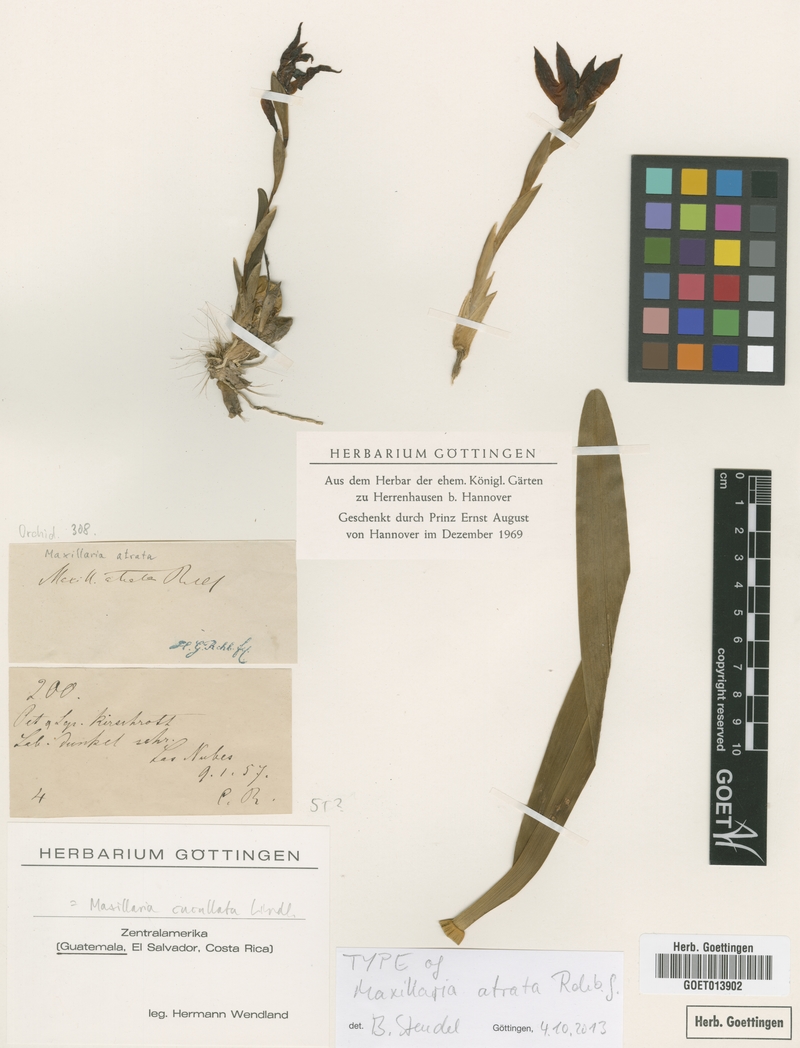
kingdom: Plantae
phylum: Tracheophyta
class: Liliopsida
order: Asparagales
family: Orchidaceae
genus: Maxillaria
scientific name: Maxillaria cucullata
